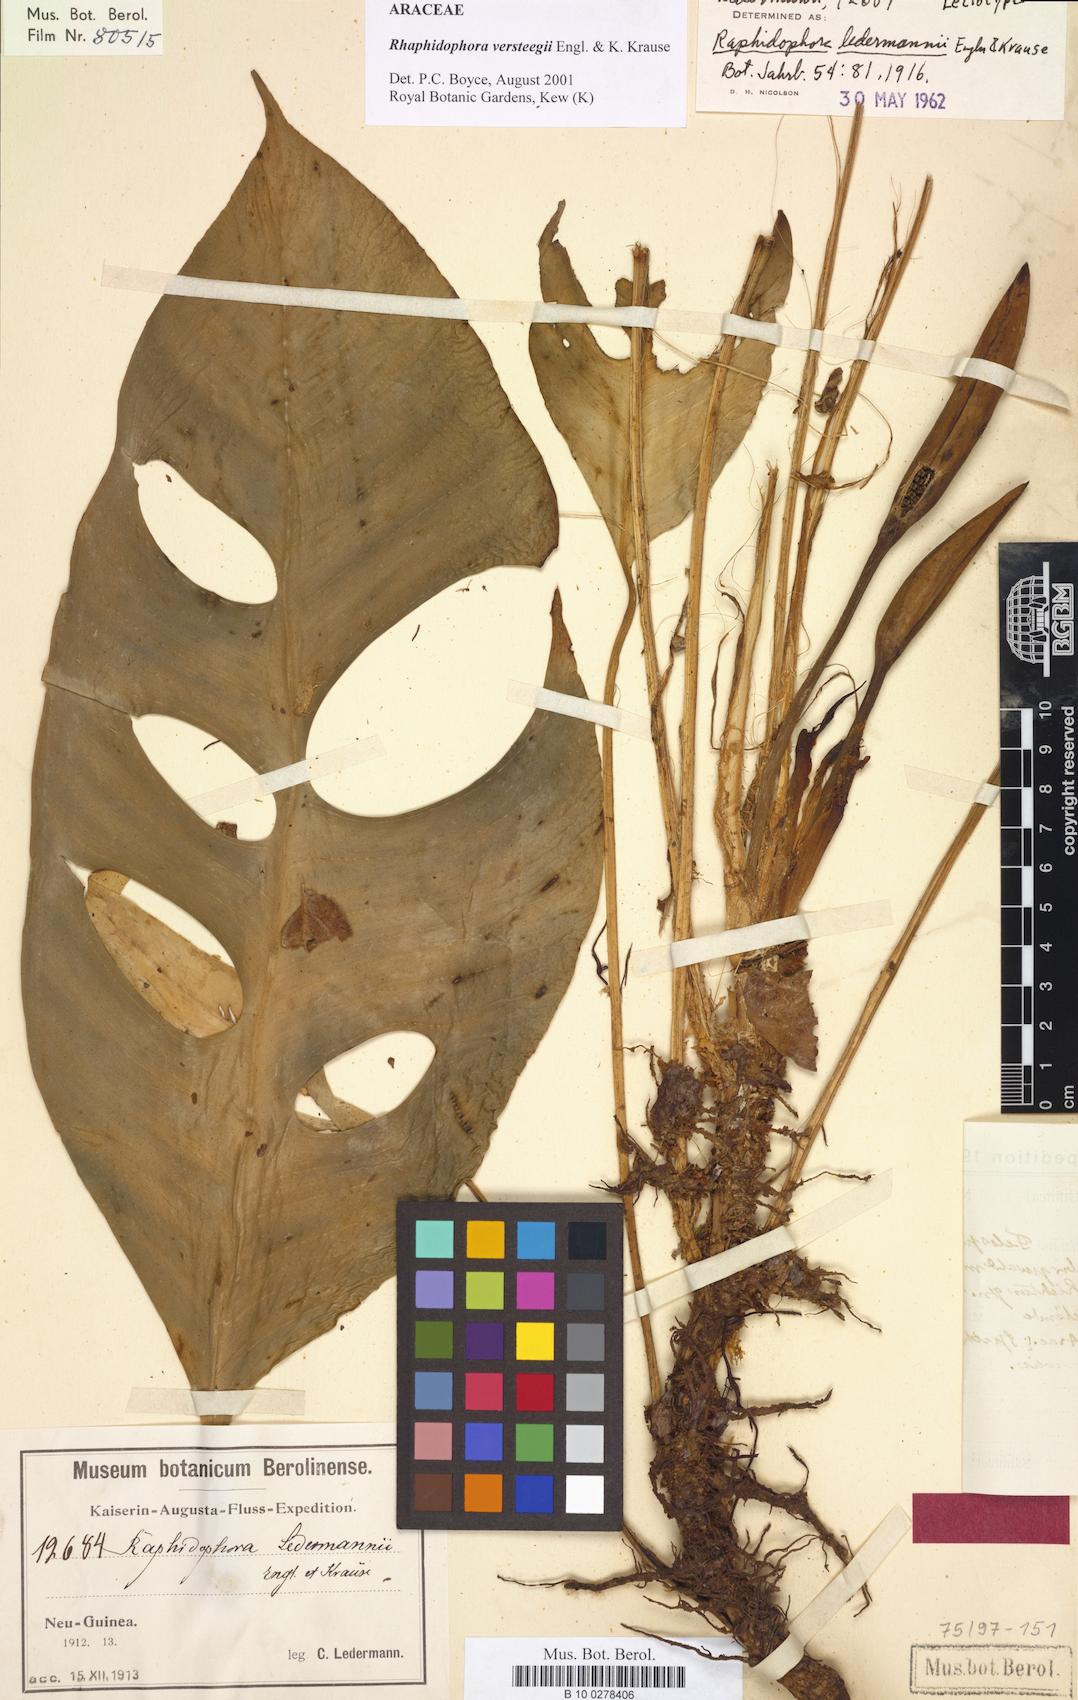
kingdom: Plantae
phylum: Tracheophyta
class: Liliopsida
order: Alismatales
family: Araceae
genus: Rhaphidophora
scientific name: Rhaphidophora versteegii
